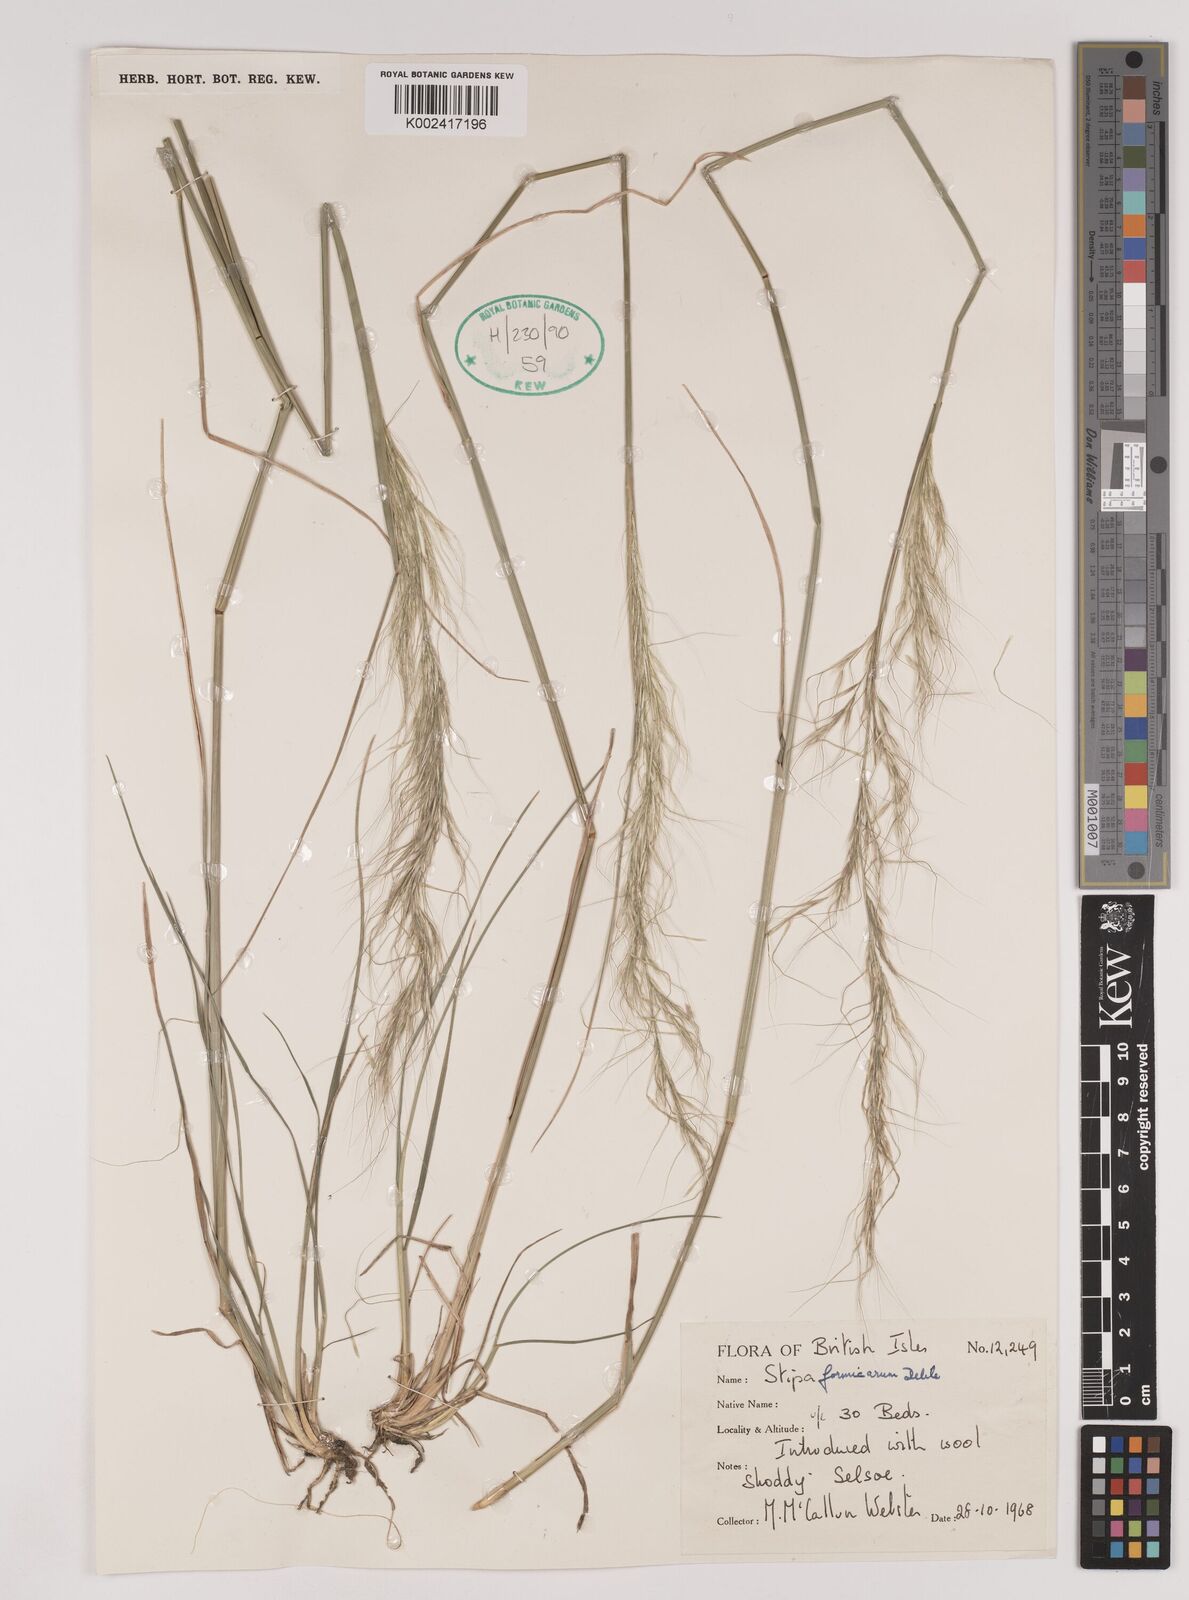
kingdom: Plantae
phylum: Tracheophyta
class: Liliopsida
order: Poales
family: Poaceae
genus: Nassella
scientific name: Nassella formicarum
